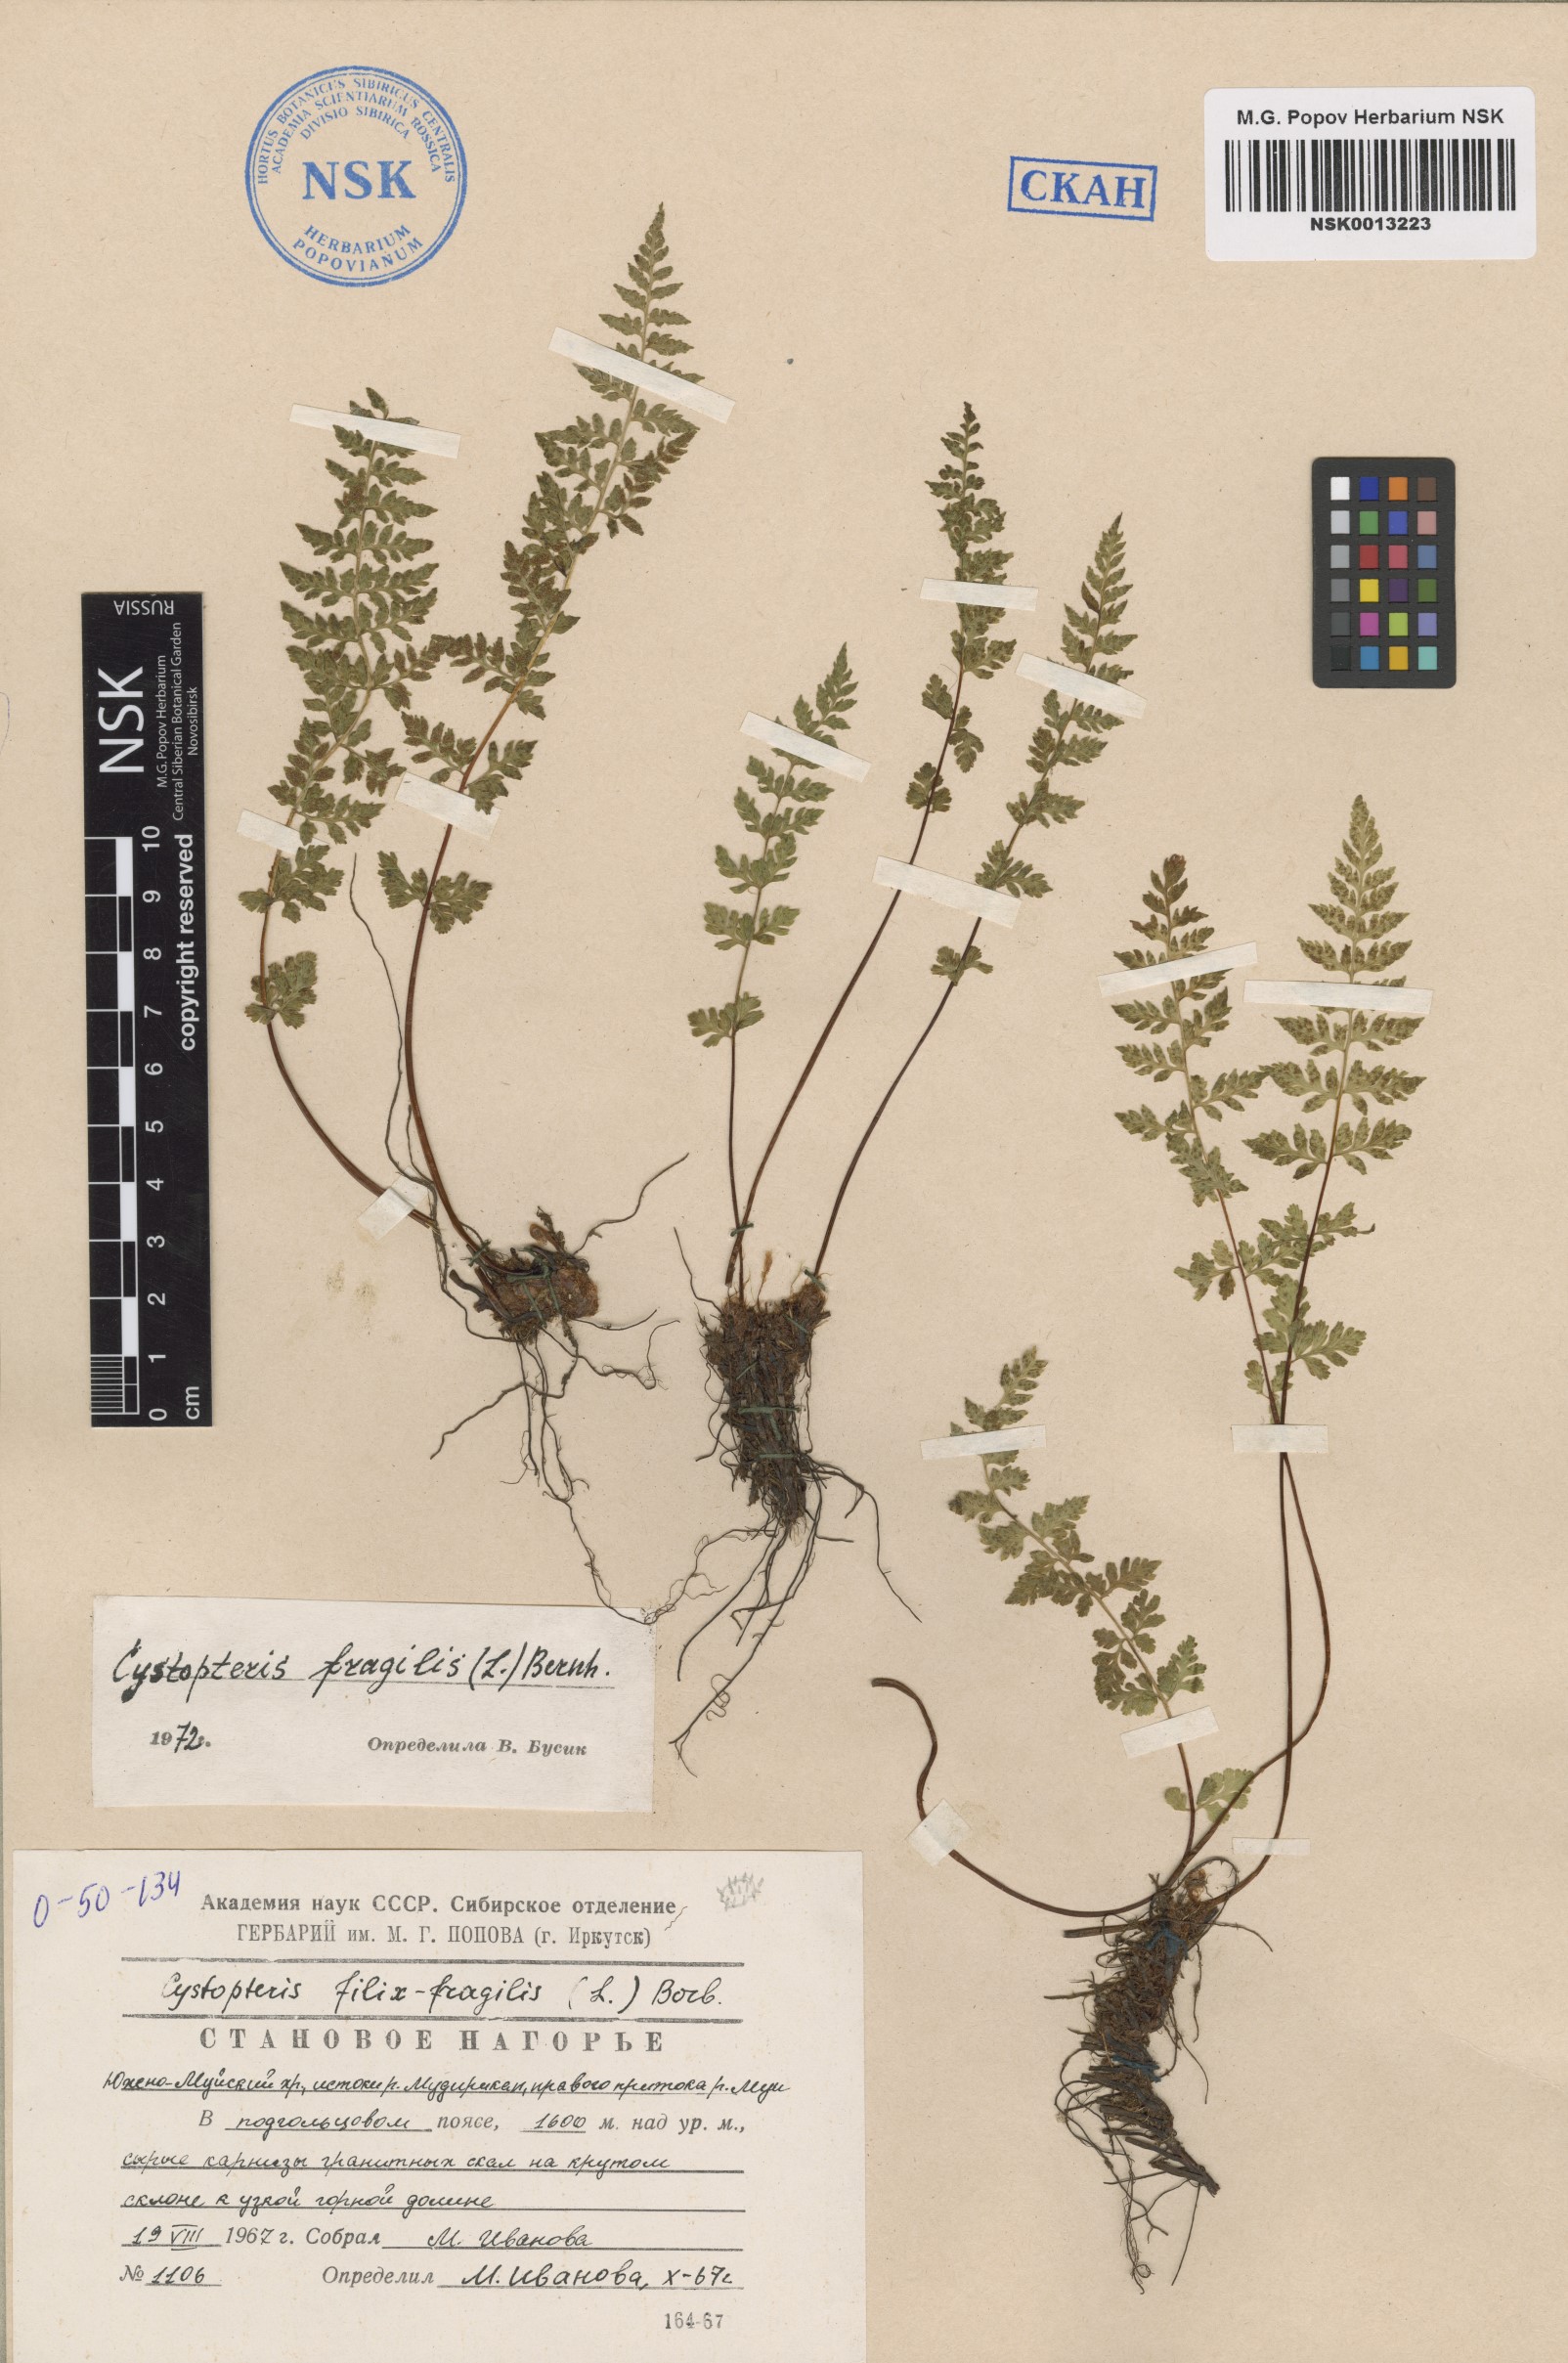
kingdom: Plantae
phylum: Tracheophyta
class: Polypodiopsida
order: Polypodiales
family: Cystopteridaceae
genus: Cystopteris
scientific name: Cystopteris fragilis
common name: Brittle bladder fern
